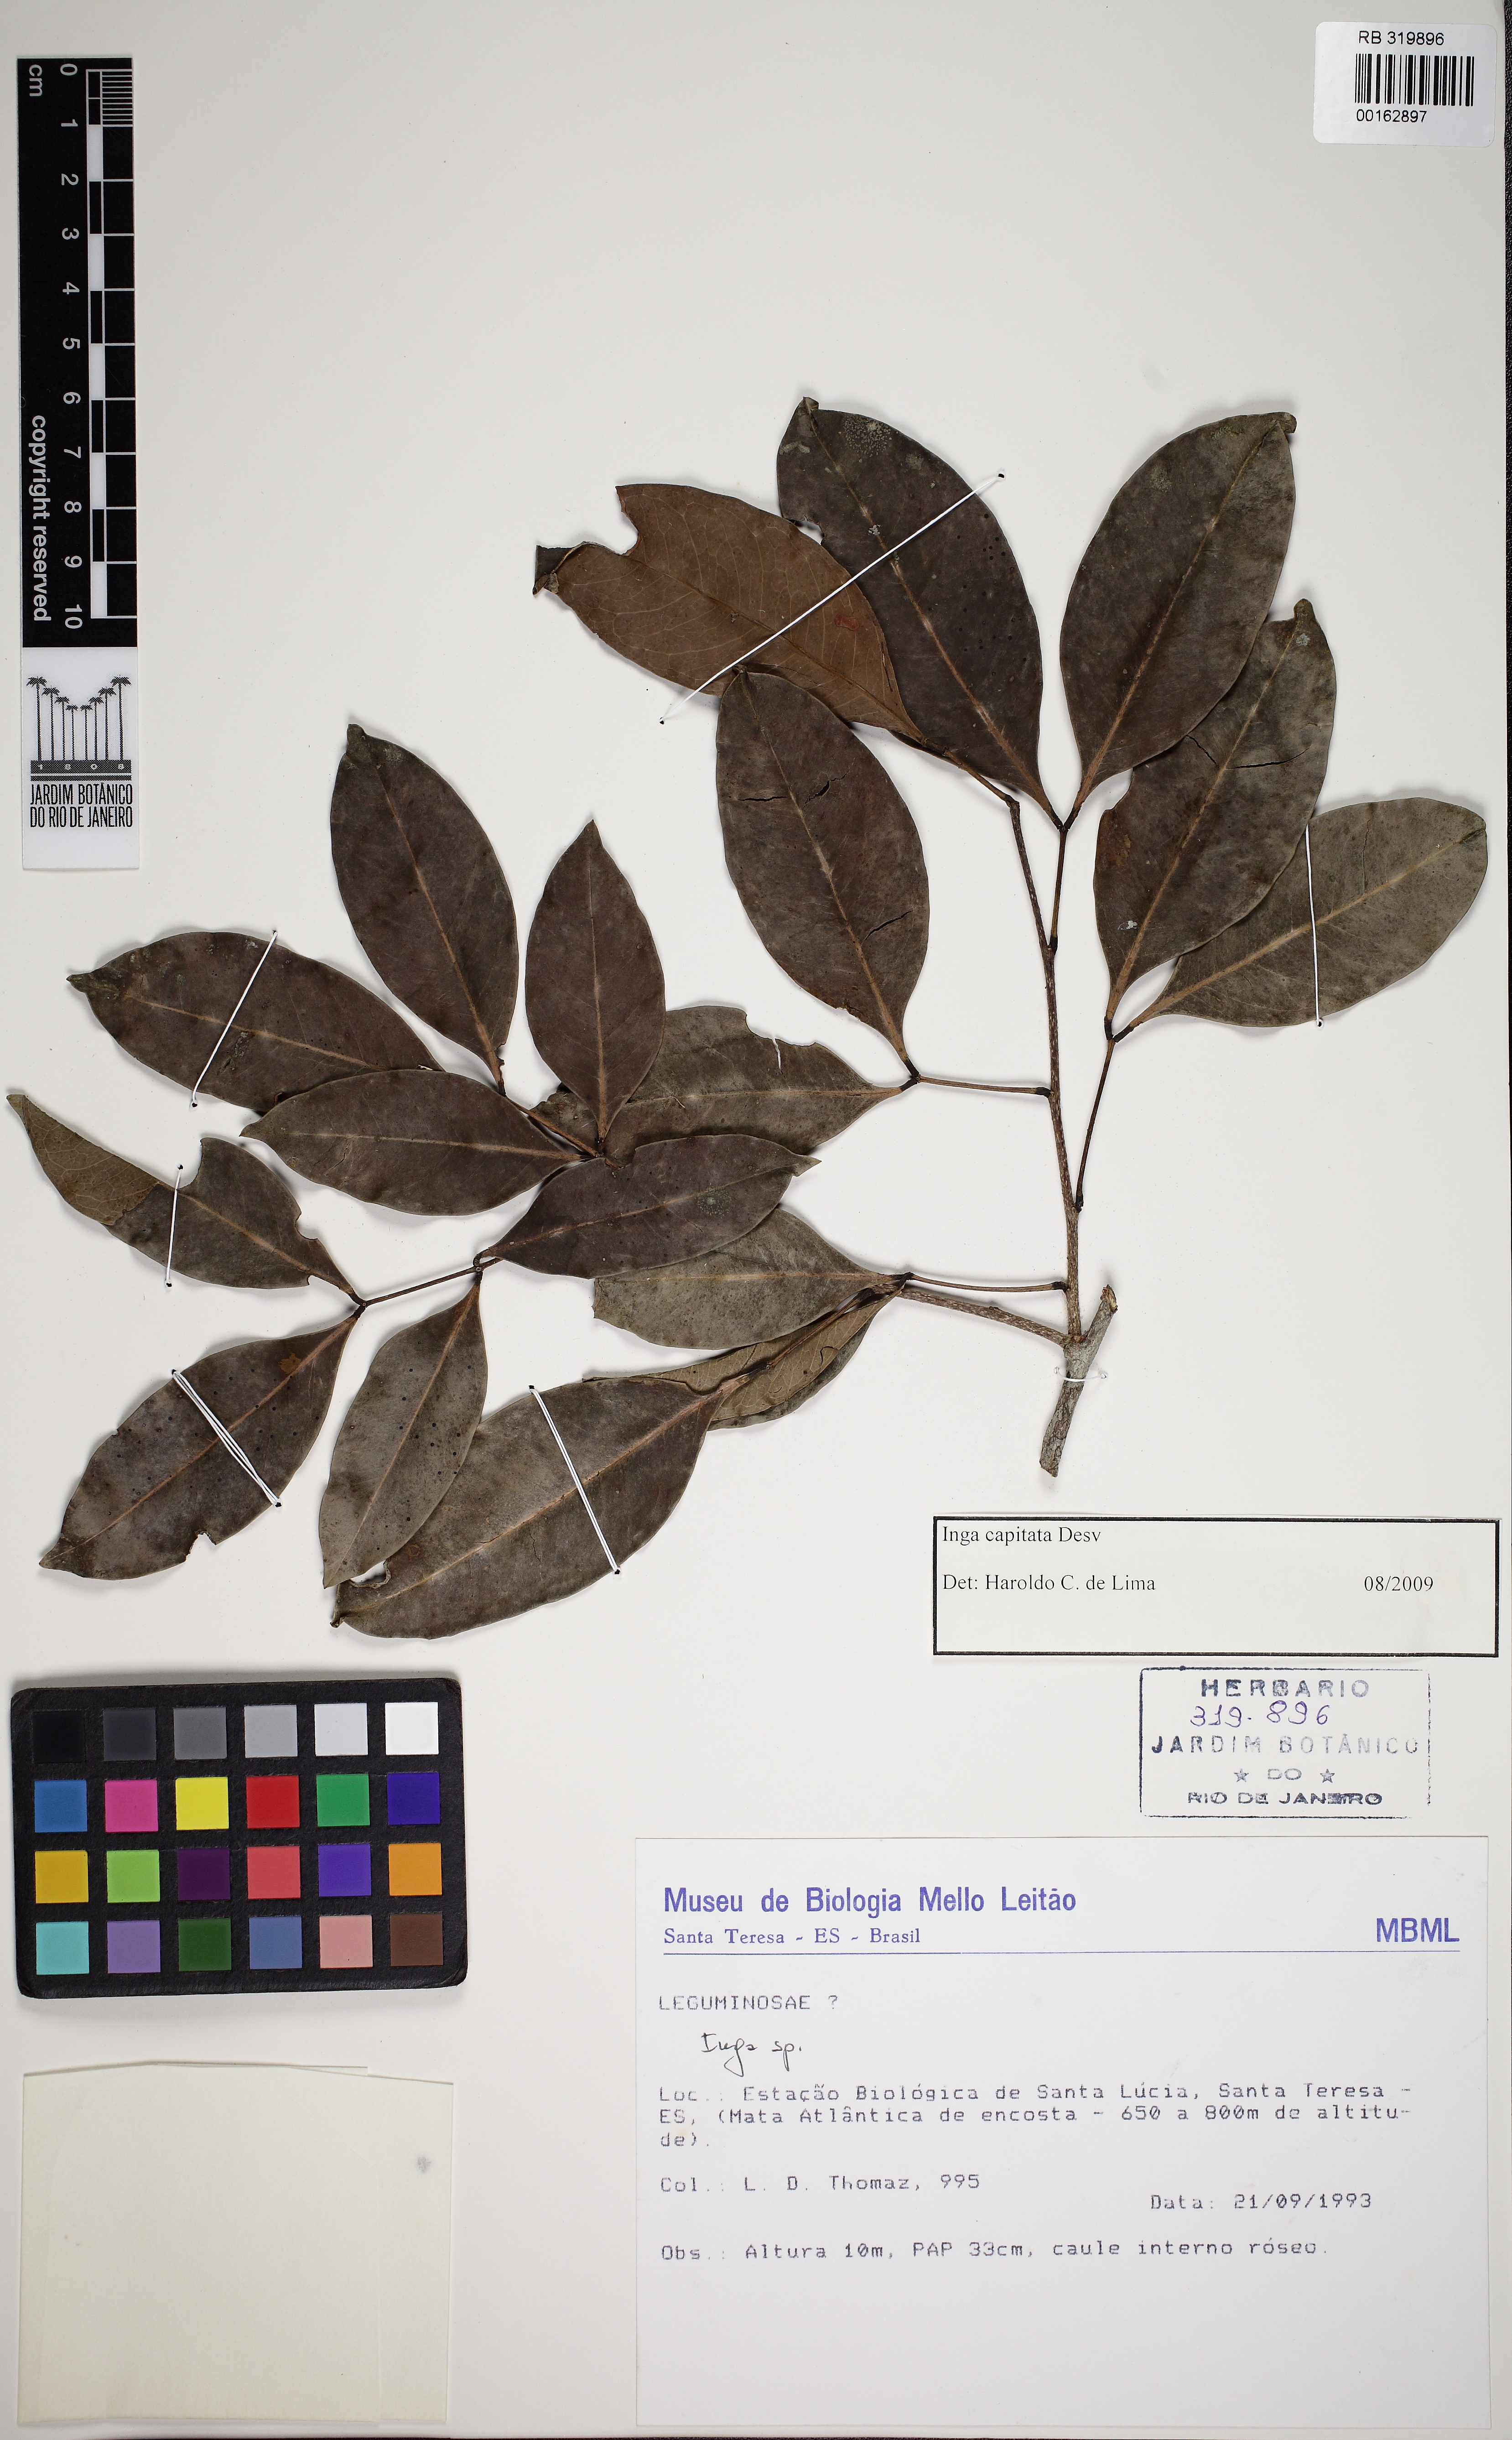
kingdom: Plantae
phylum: Tracheophyta
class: Magnoliopsida
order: Fabales
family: Fabaceae
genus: Inga
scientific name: Inga capitata
